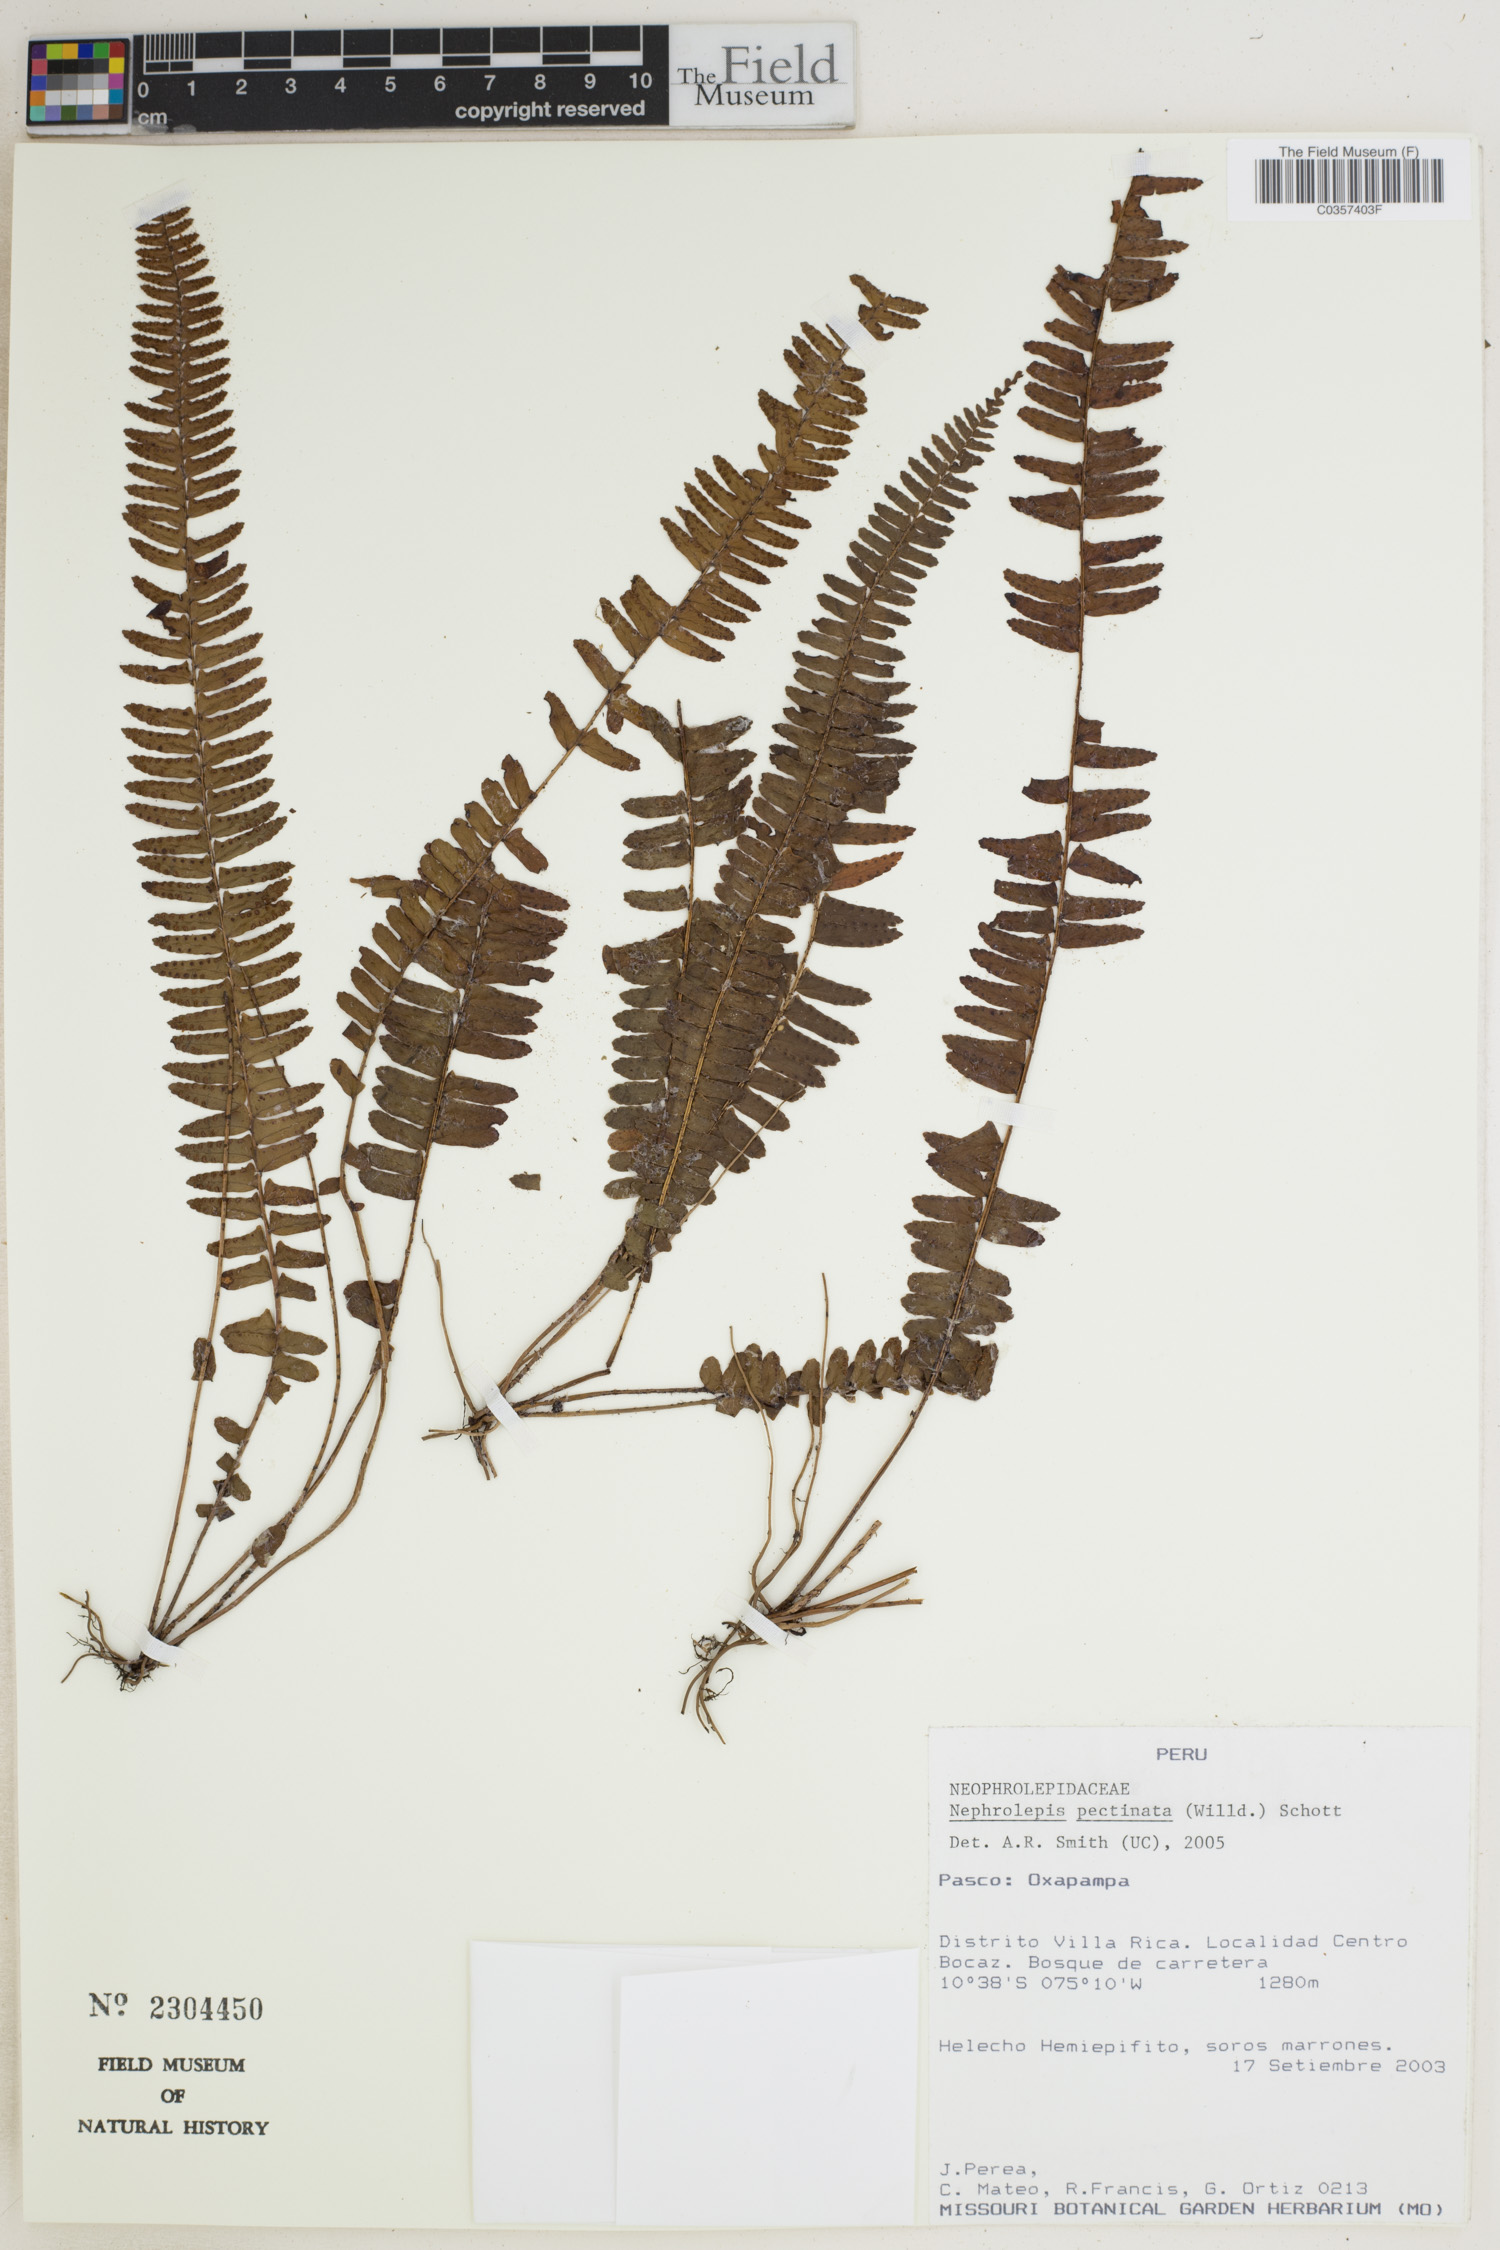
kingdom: Plantae
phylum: Tracheophyta
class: Polypodiopsida
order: Polypodiales
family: Nephrolepidaceae
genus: Nephrolepis
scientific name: Nephrolepis pectinata
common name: Basket fern
